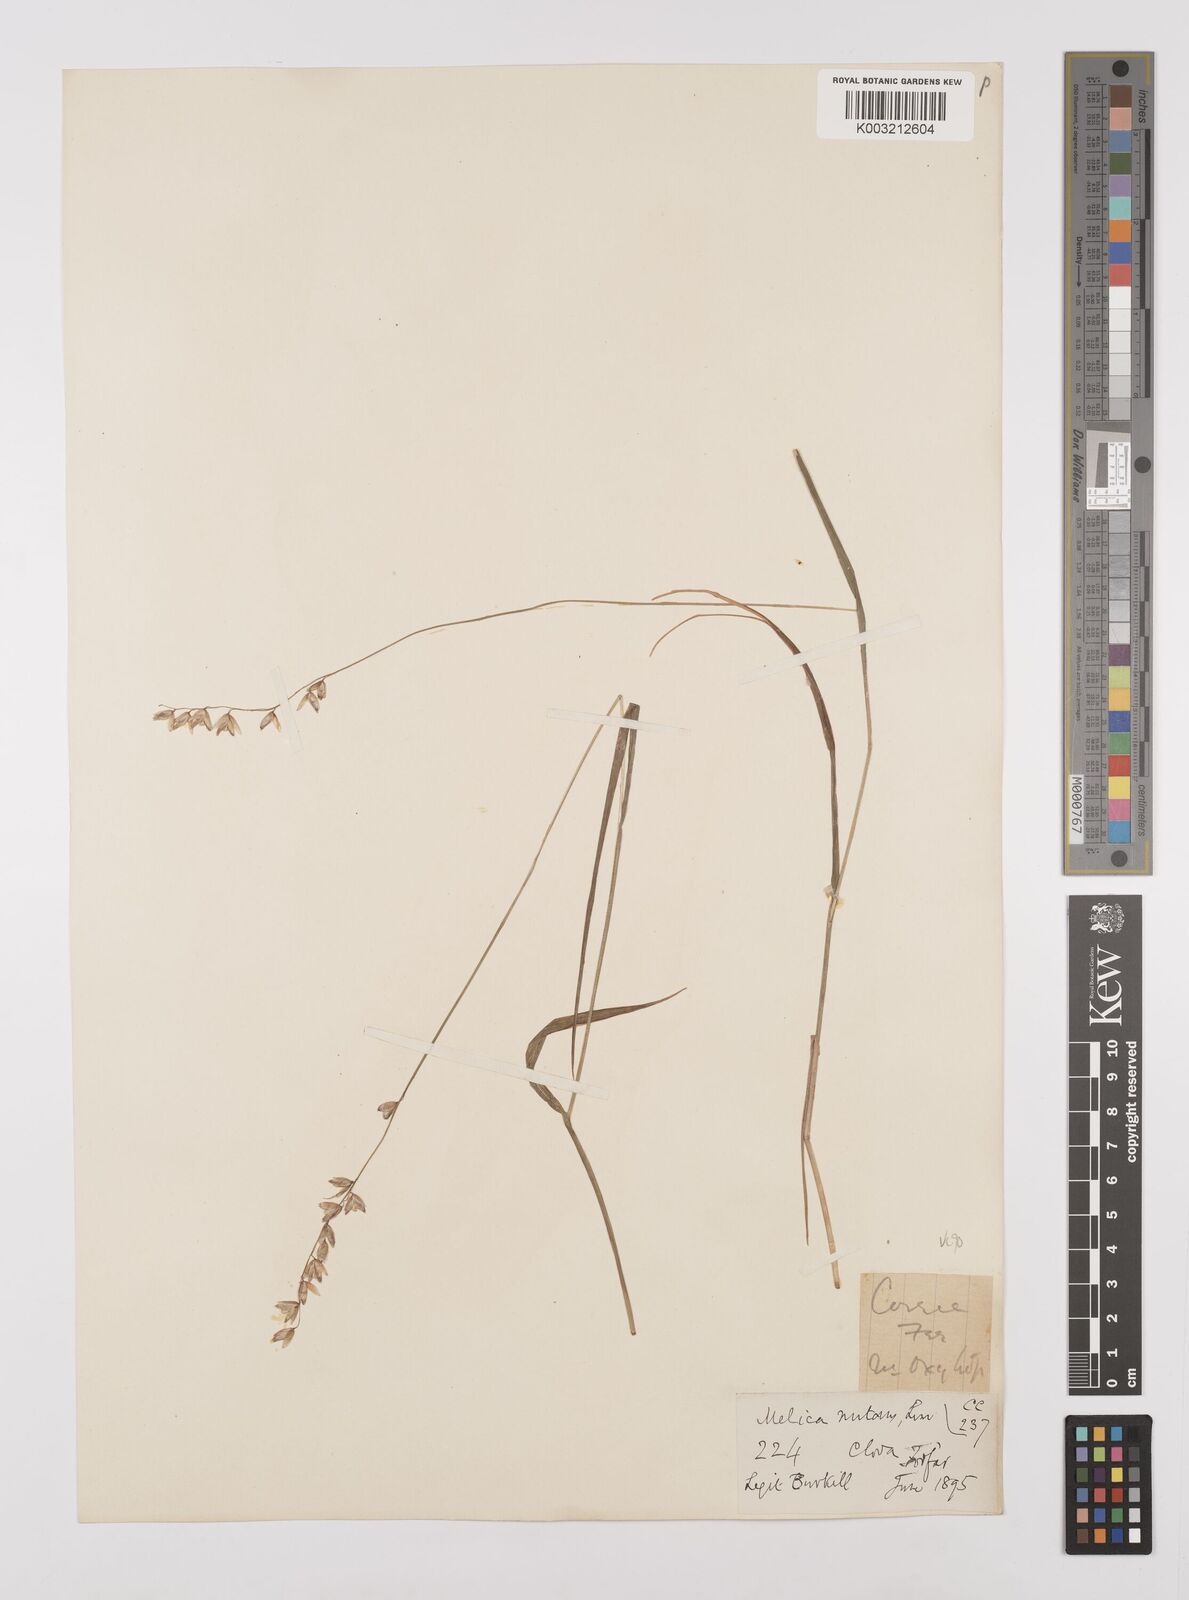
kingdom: Plantae
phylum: Tracheophyta
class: Liliopsida
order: Poales
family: Poaceae
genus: Melica
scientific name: Melica
